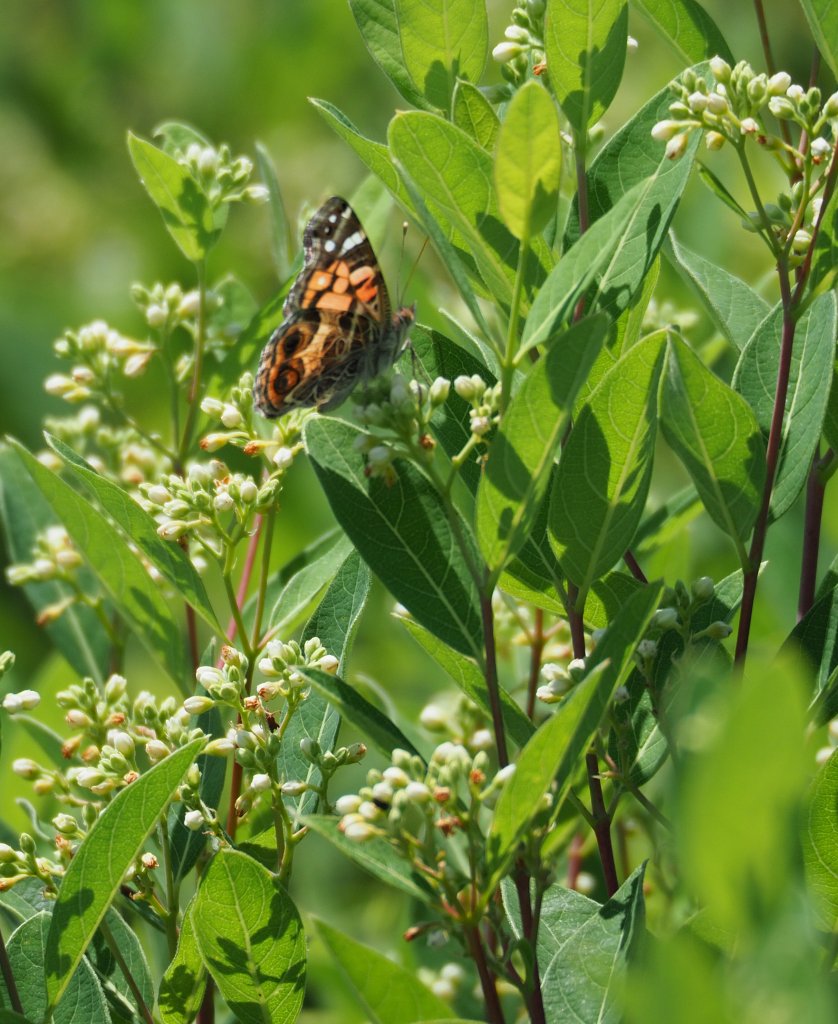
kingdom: Animalia
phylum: Arthropoda
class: Insecta
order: Lepidoptera
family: Nymphalidae
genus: Vanessa
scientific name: Vanessa virginiensis
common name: American Lady
